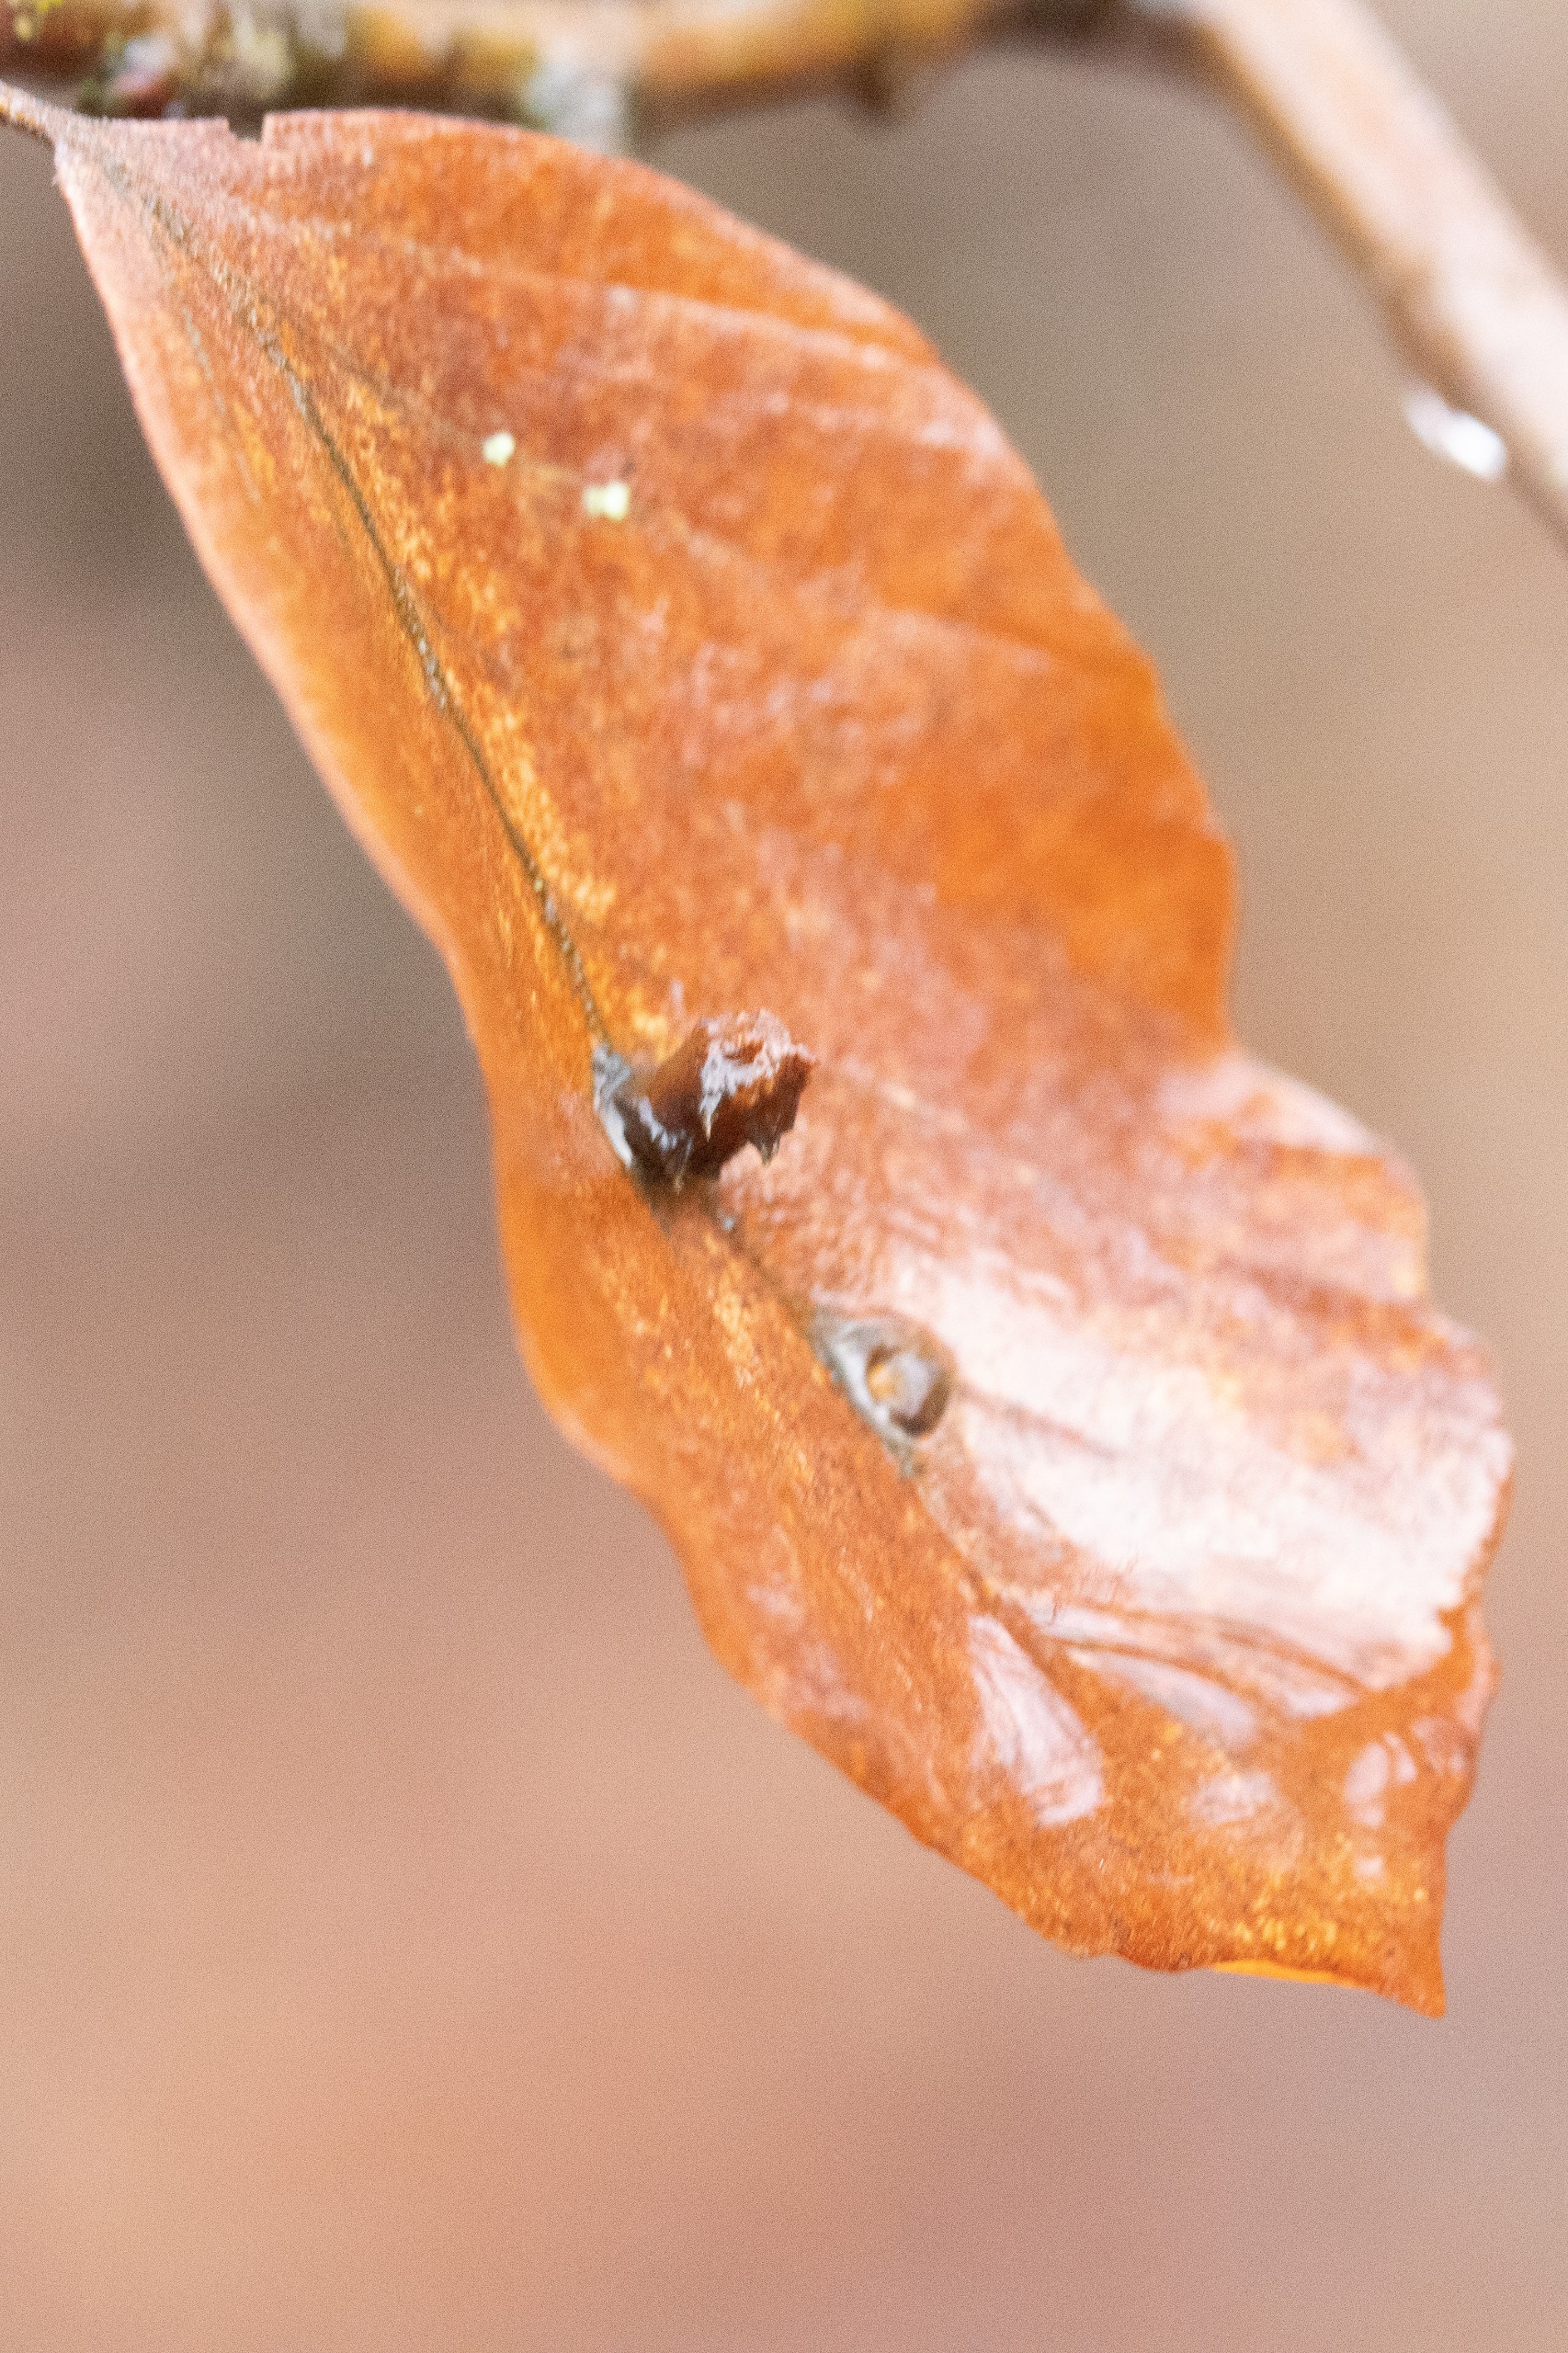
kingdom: Animalia
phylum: Arthropoda
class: Insecta
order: Diptera
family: Cecidomyiidae
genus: Hartigiola
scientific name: Hartigiola annulipes
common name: Skovtroldegalmyg
